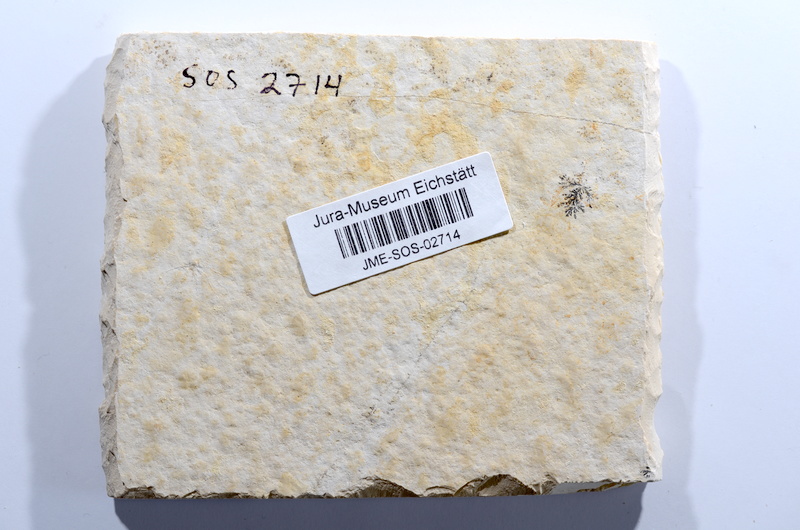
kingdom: Animalia
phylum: Chordata
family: Ascalaboidae
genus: Tharsis
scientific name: Tharsis dubius
